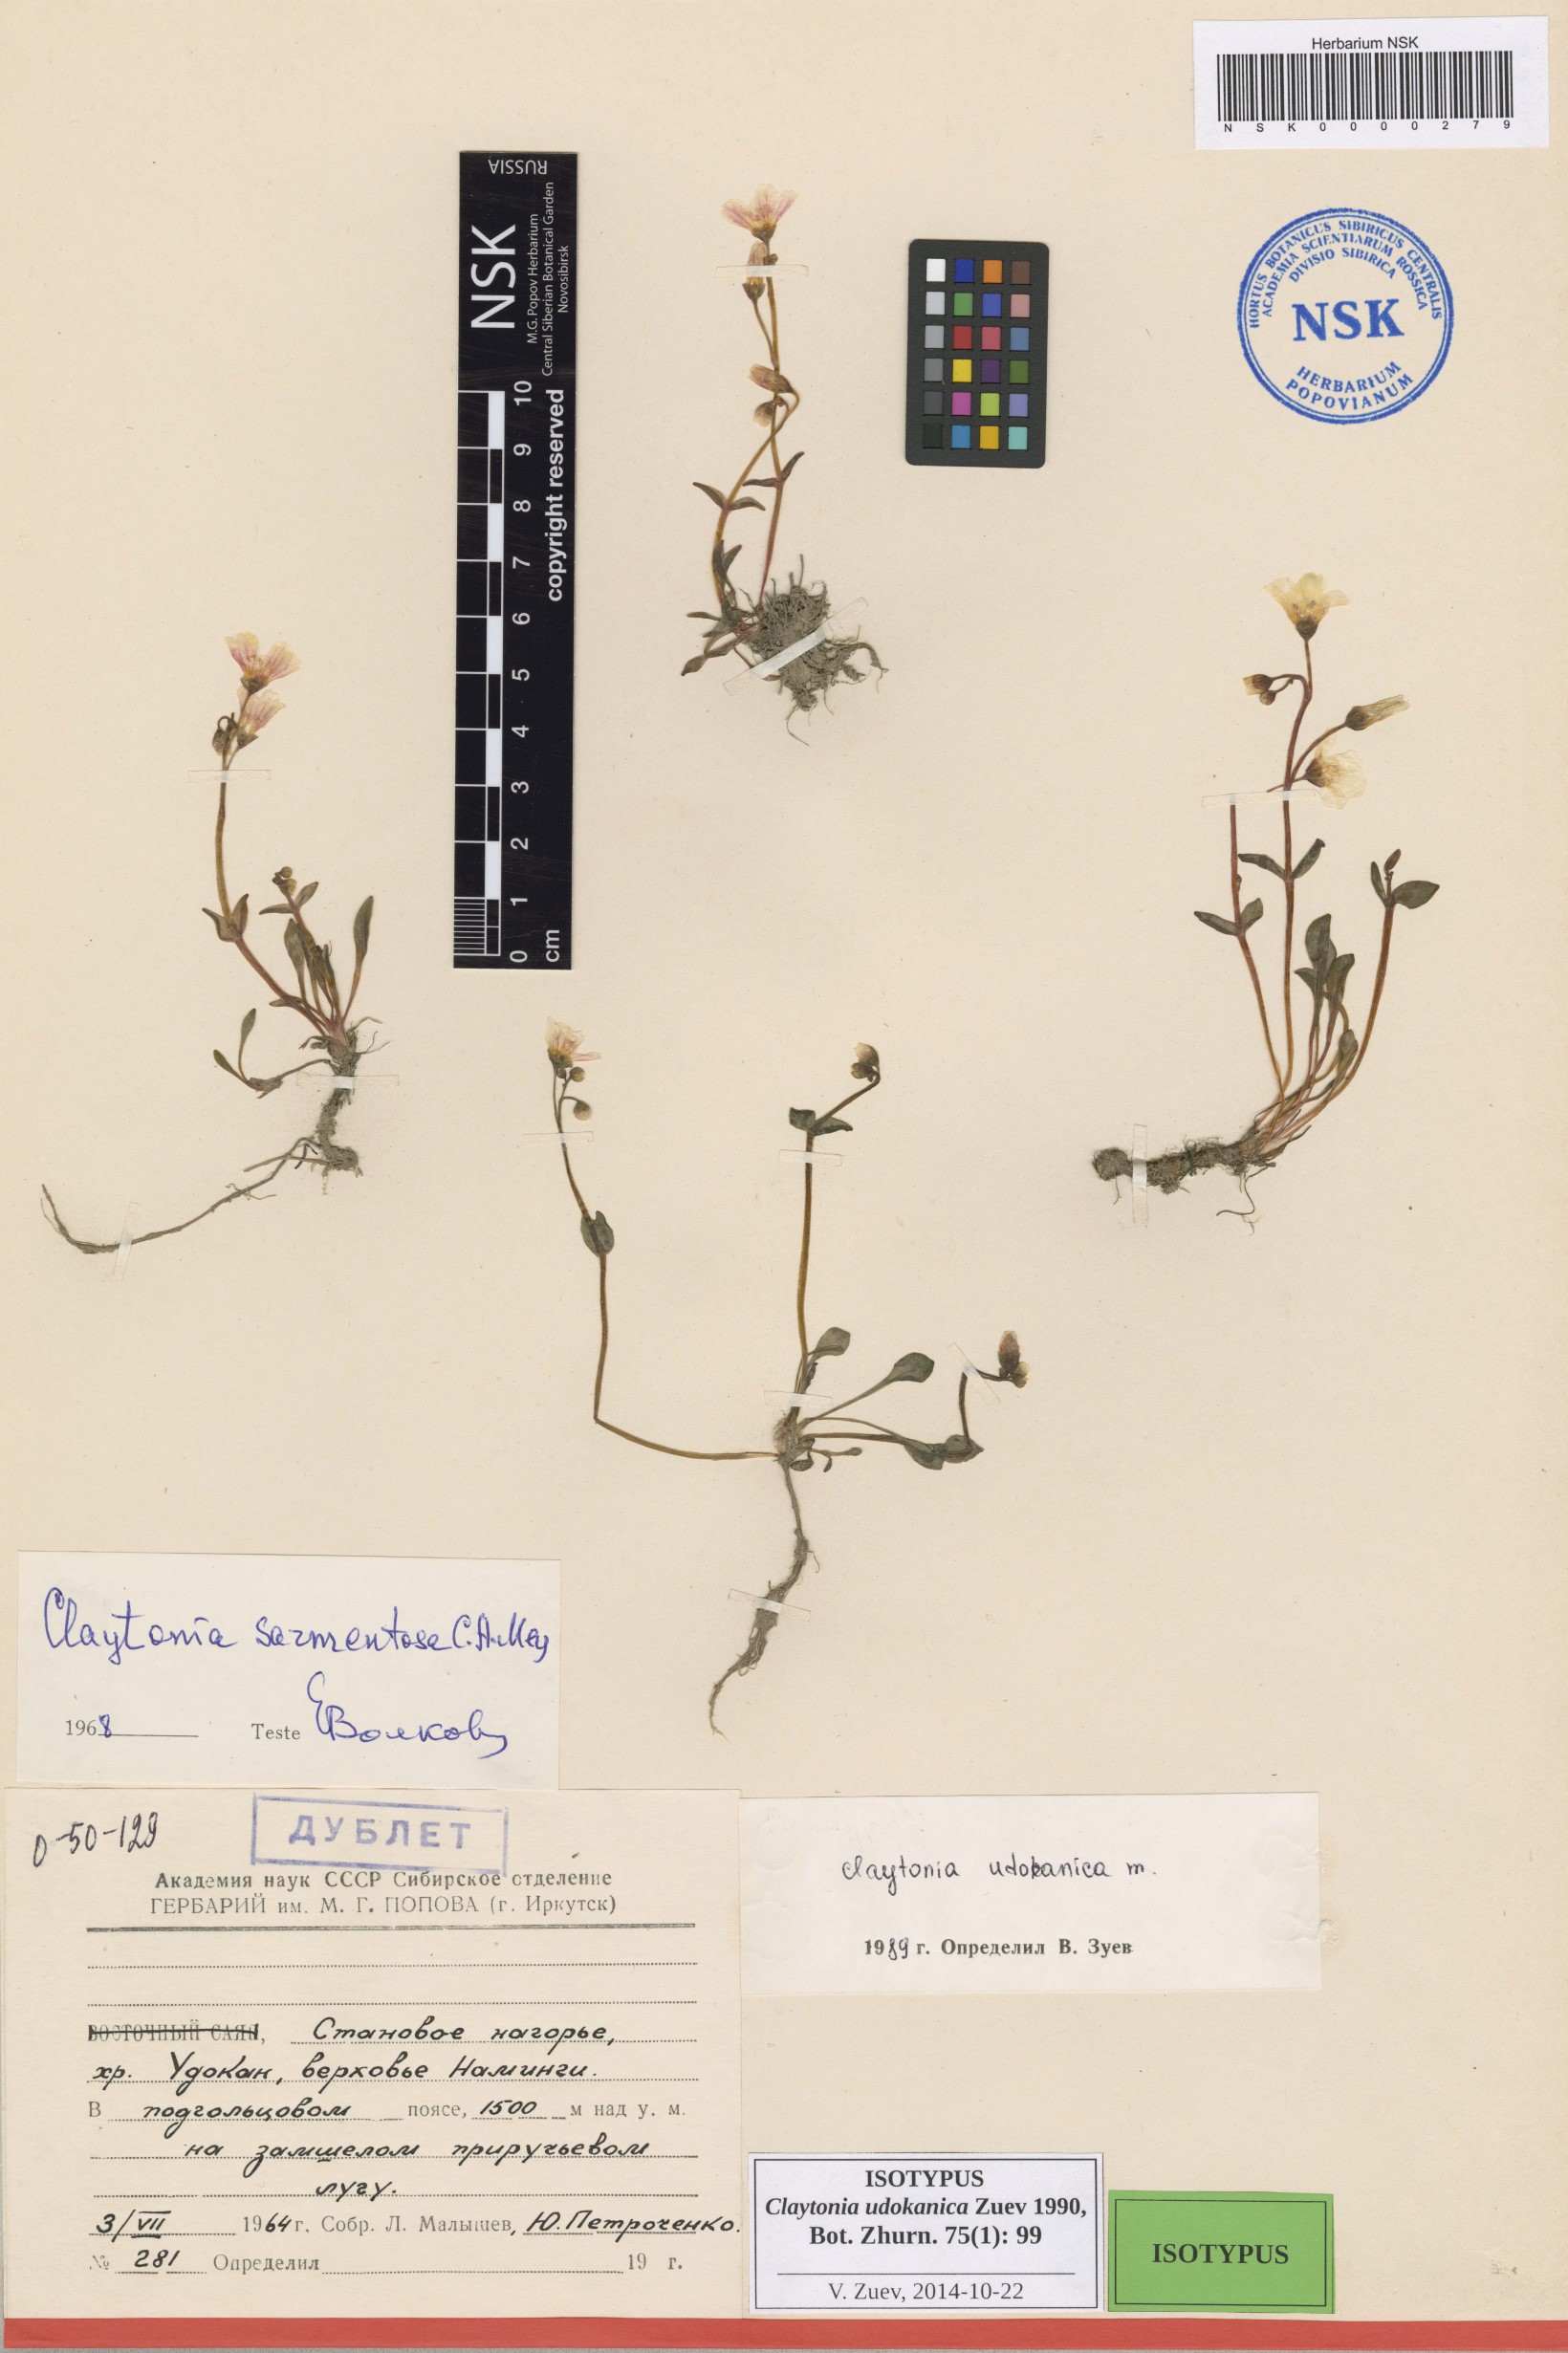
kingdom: Plantae
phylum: Tracheophyta
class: Magnoliopsida
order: Caryophyllales
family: Montiaceae
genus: Claytonia
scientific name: Claytonia udokanica
